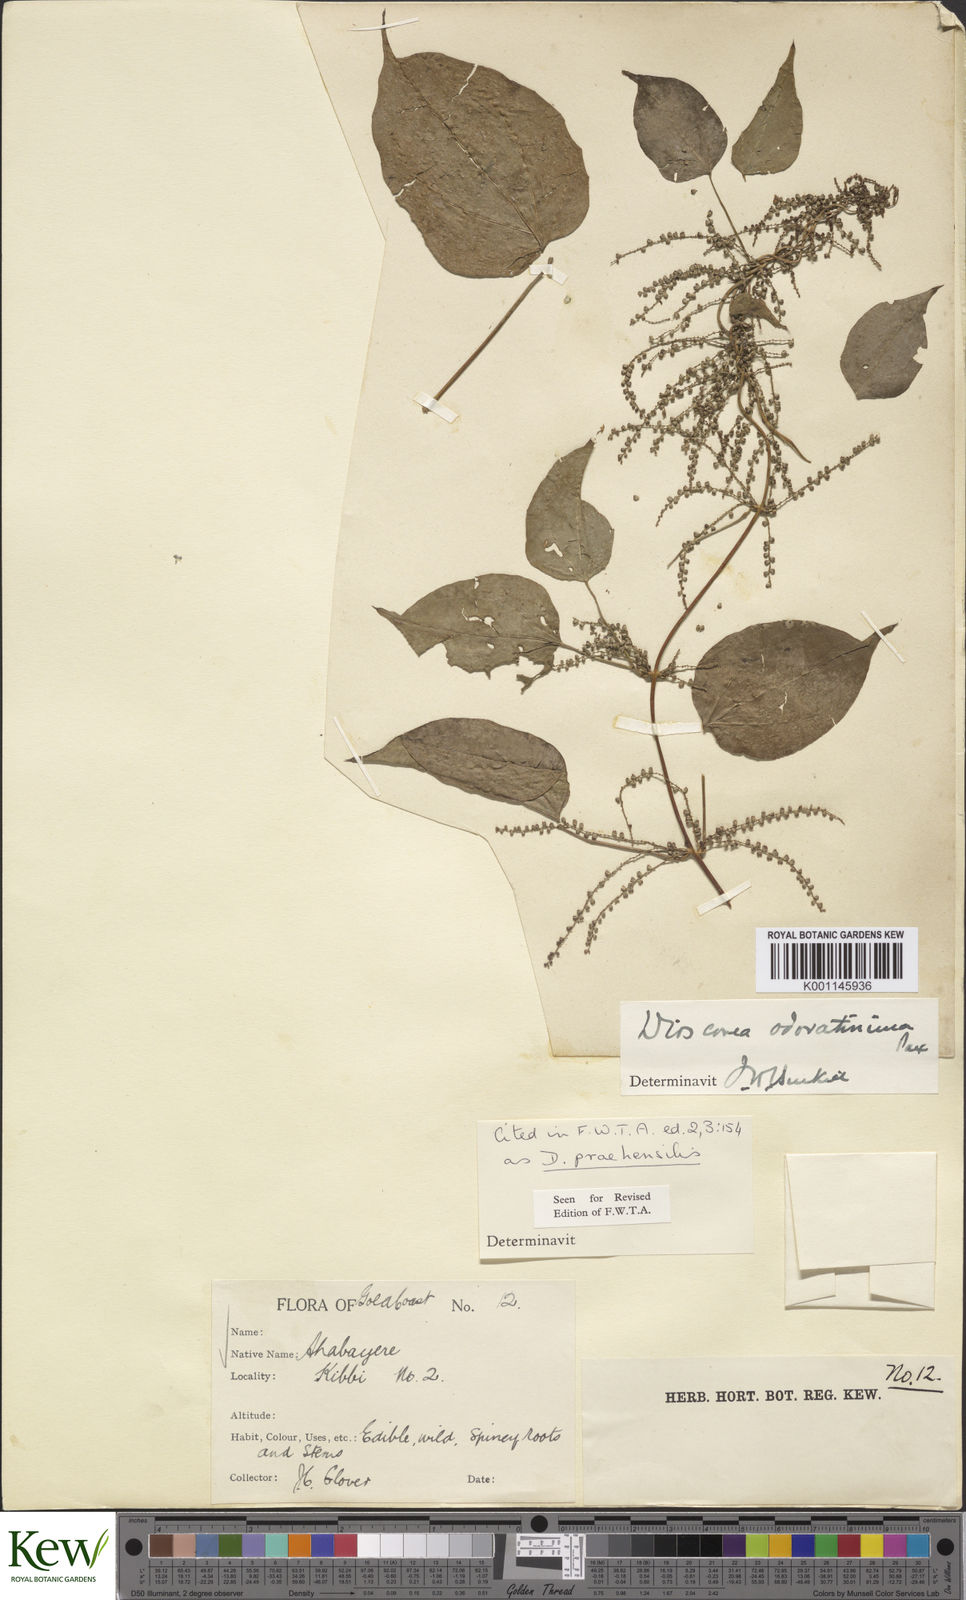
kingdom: Plantae
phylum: Tracheophyta
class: Liliopsida
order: Dioscoreales
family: Dioscoreaceae
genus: Dioscorea
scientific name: Dioscorea praehensilis
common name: Bush yam
